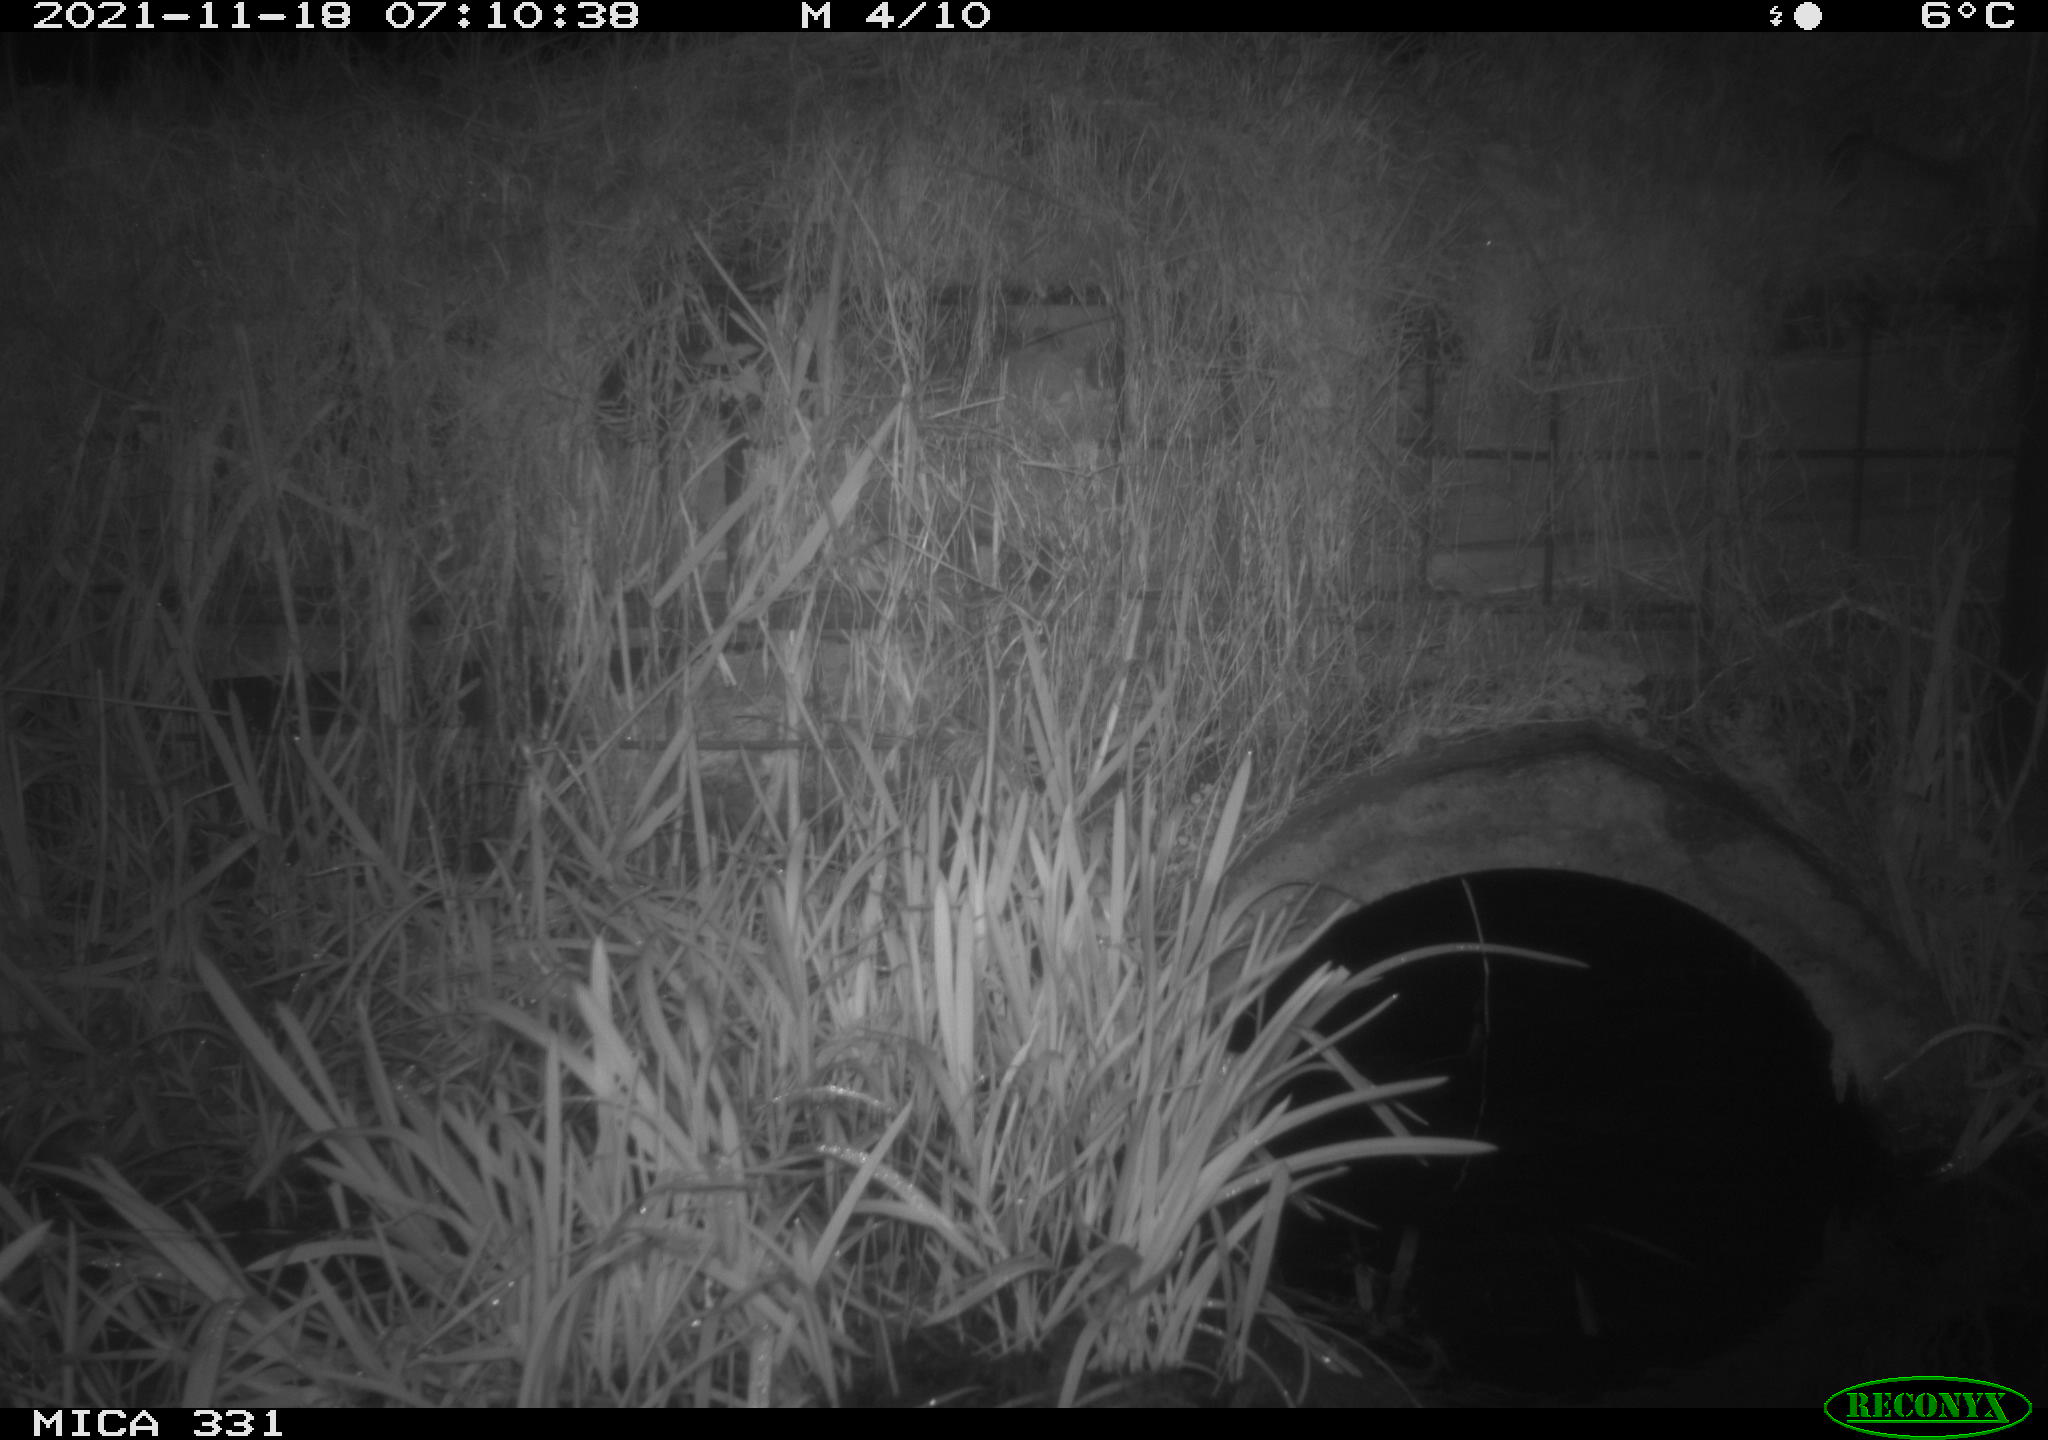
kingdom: Animalia
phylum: Chordata
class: Mammalia
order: Rodentia
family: Muridae
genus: Rattus
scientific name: Rattus norvegicus
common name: Brown rat
